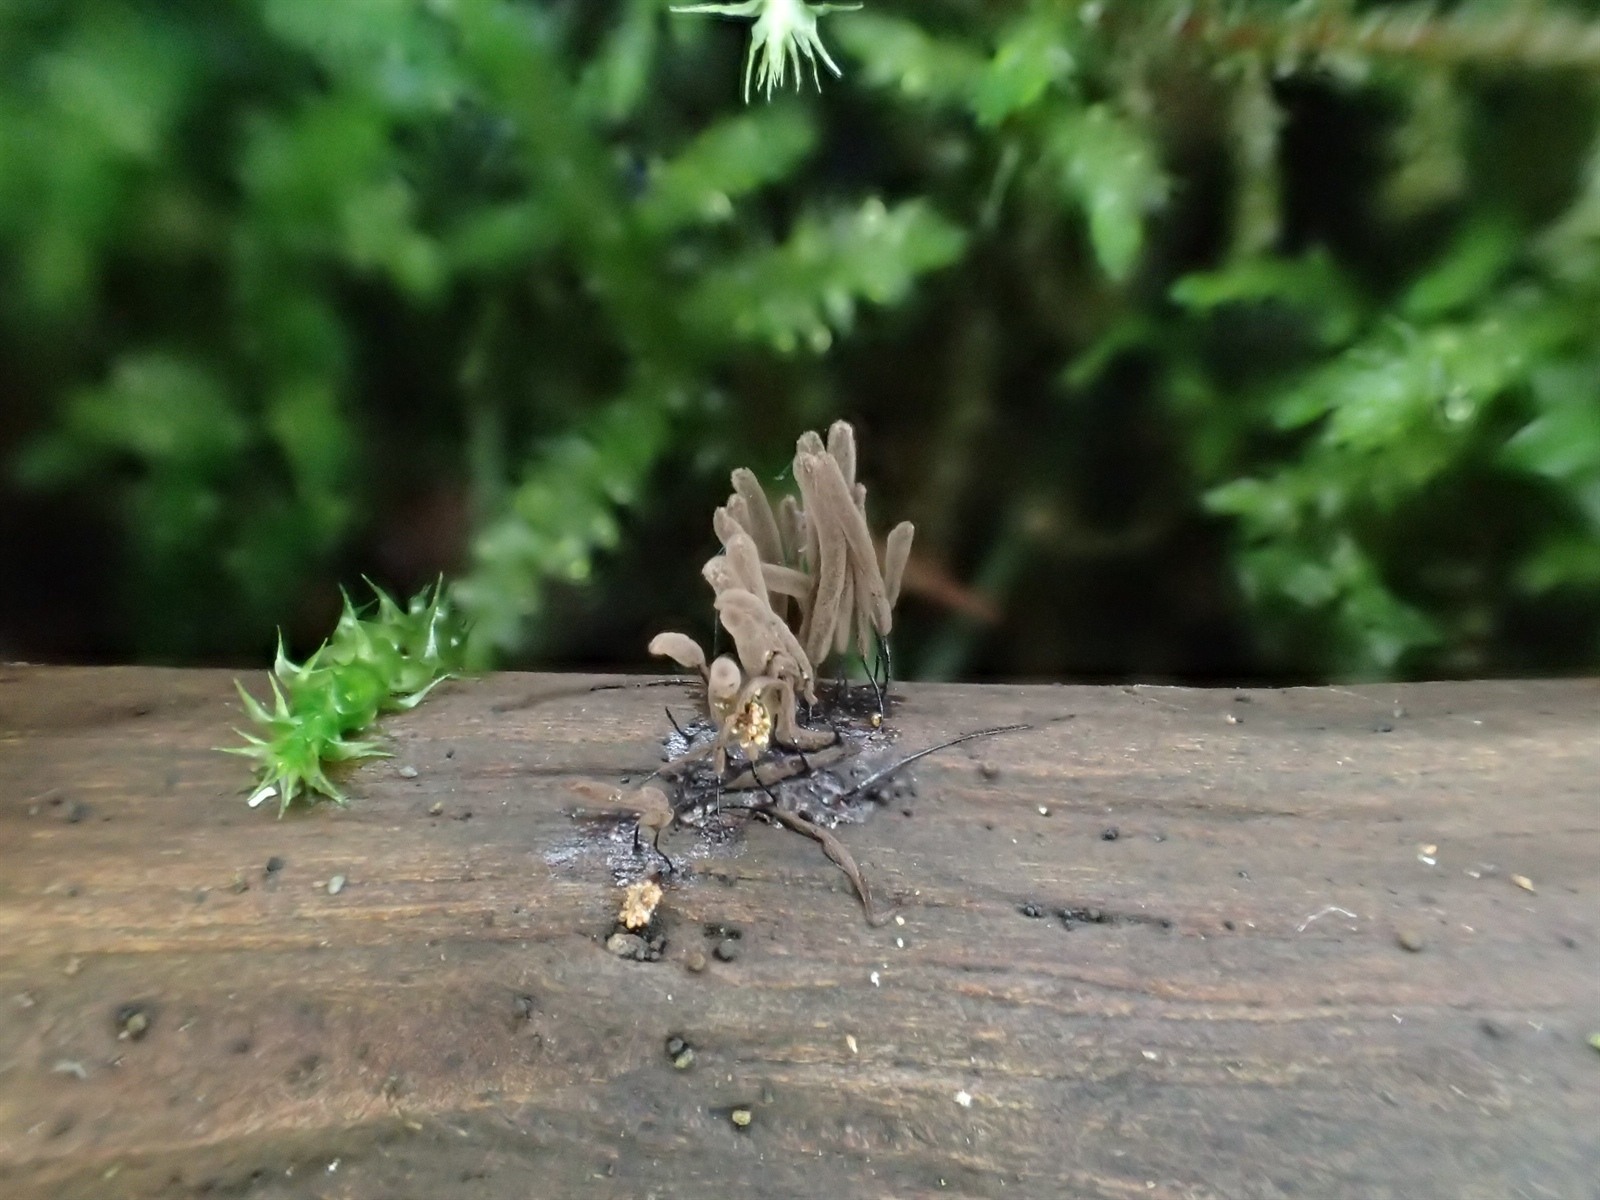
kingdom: Protozoa
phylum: Mycetozoa
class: Myxomycetes
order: Stemonitidales
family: Stemonitidaceae
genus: Stemonitis
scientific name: Stemonitis marjana
